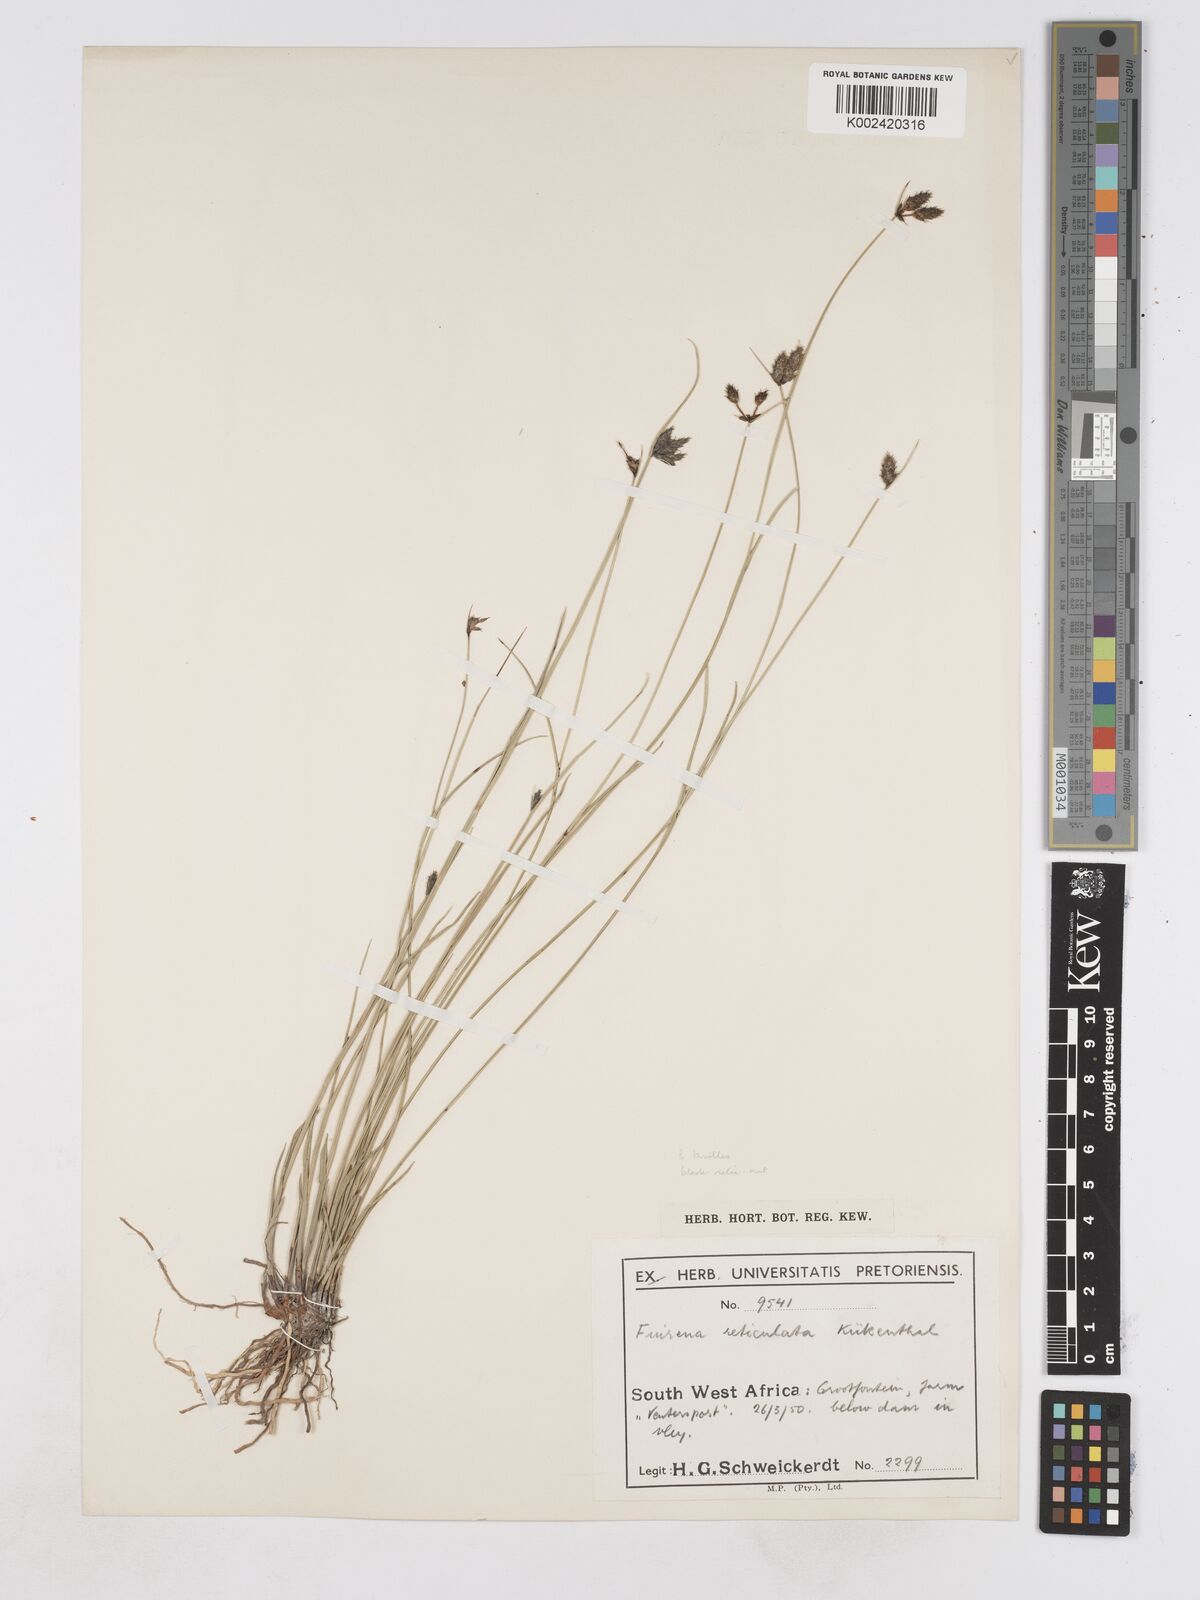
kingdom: Plantae
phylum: Tracheophyta
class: Liliopsida
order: Poales
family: Cyperaceae
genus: Fuirena
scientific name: Fuirena coerulescens
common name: Blue umbrella-sedge
